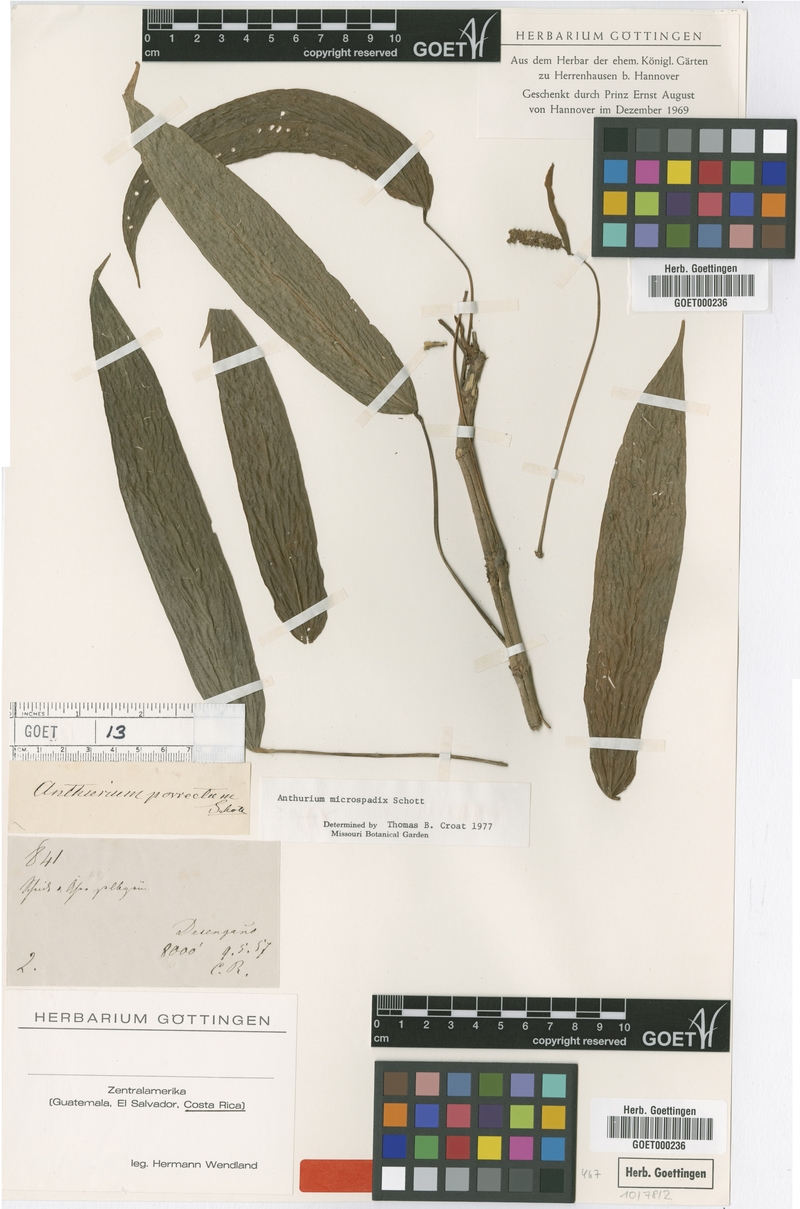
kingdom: Plantae
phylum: Tracheophyta
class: Liliopsida
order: Alismatales
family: Araceae
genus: Anthurium
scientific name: Anthurium microspadix
